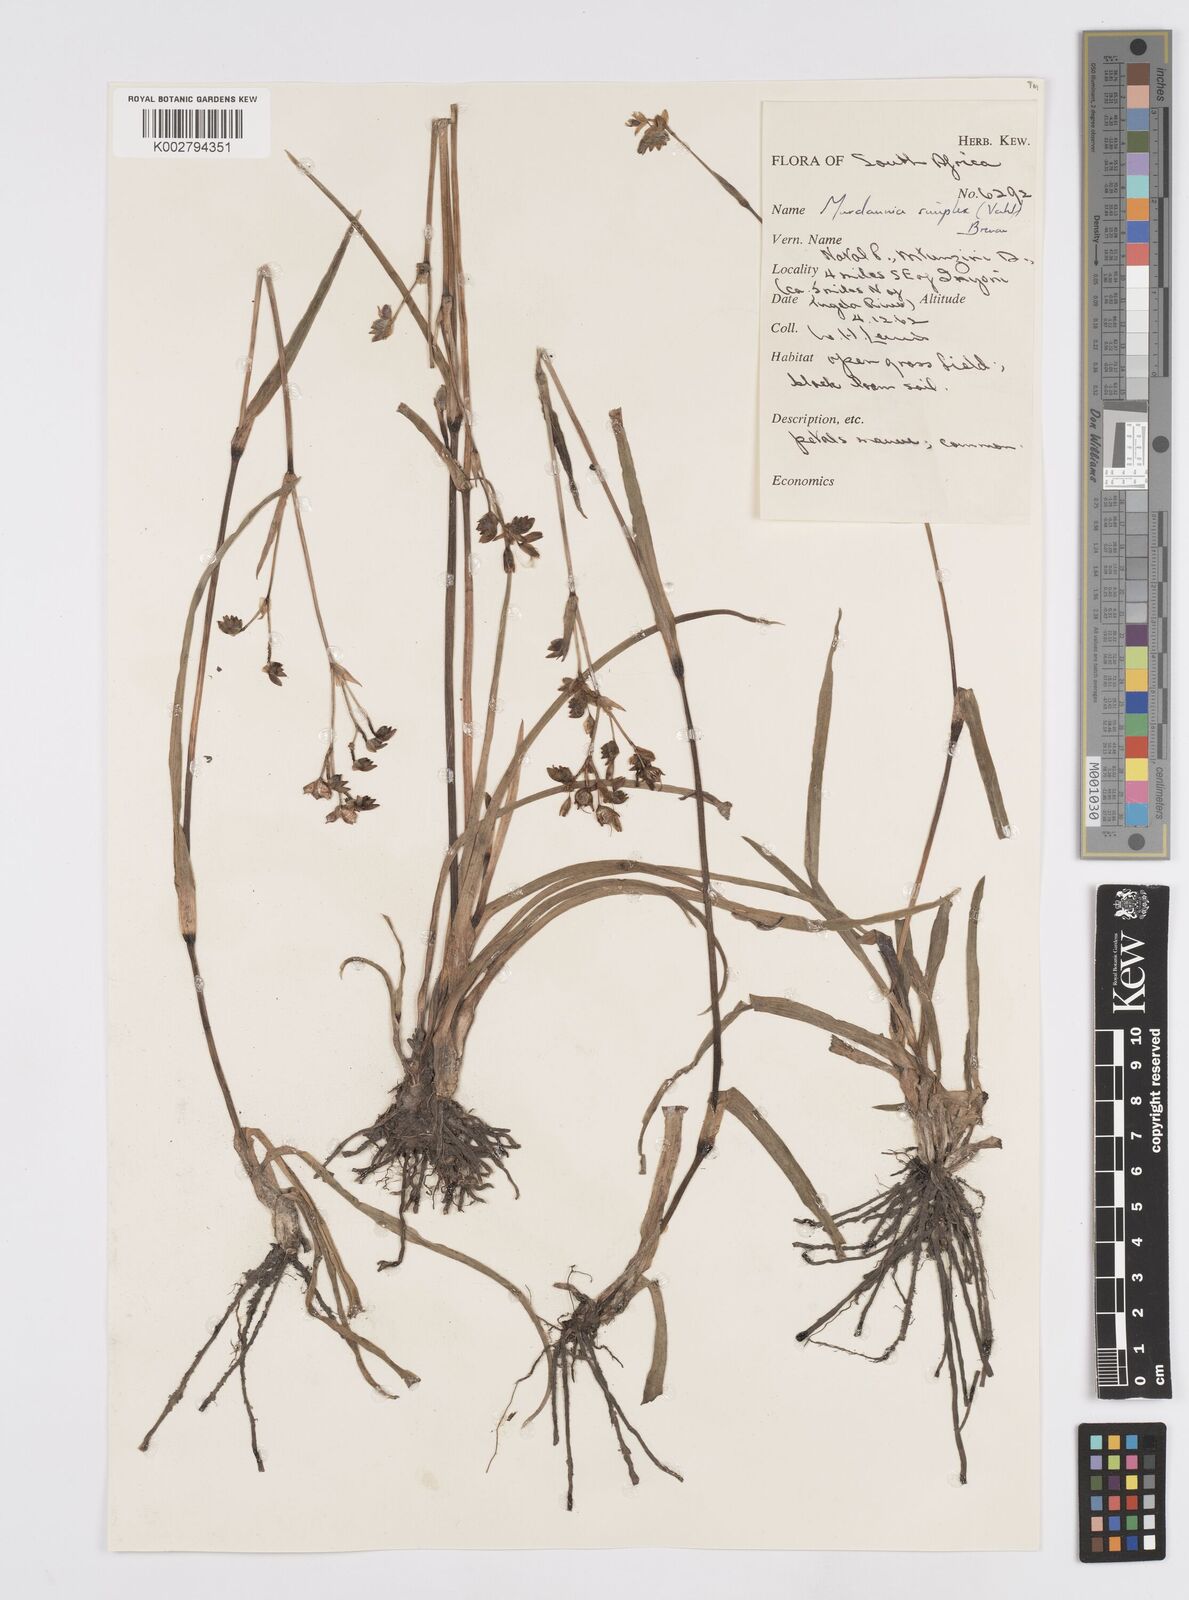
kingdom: Plantae
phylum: Tracheophyta
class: Liliopsida
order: Commelinales
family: Commelinaceae
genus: Murdannia
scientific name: Murdannia simplex
